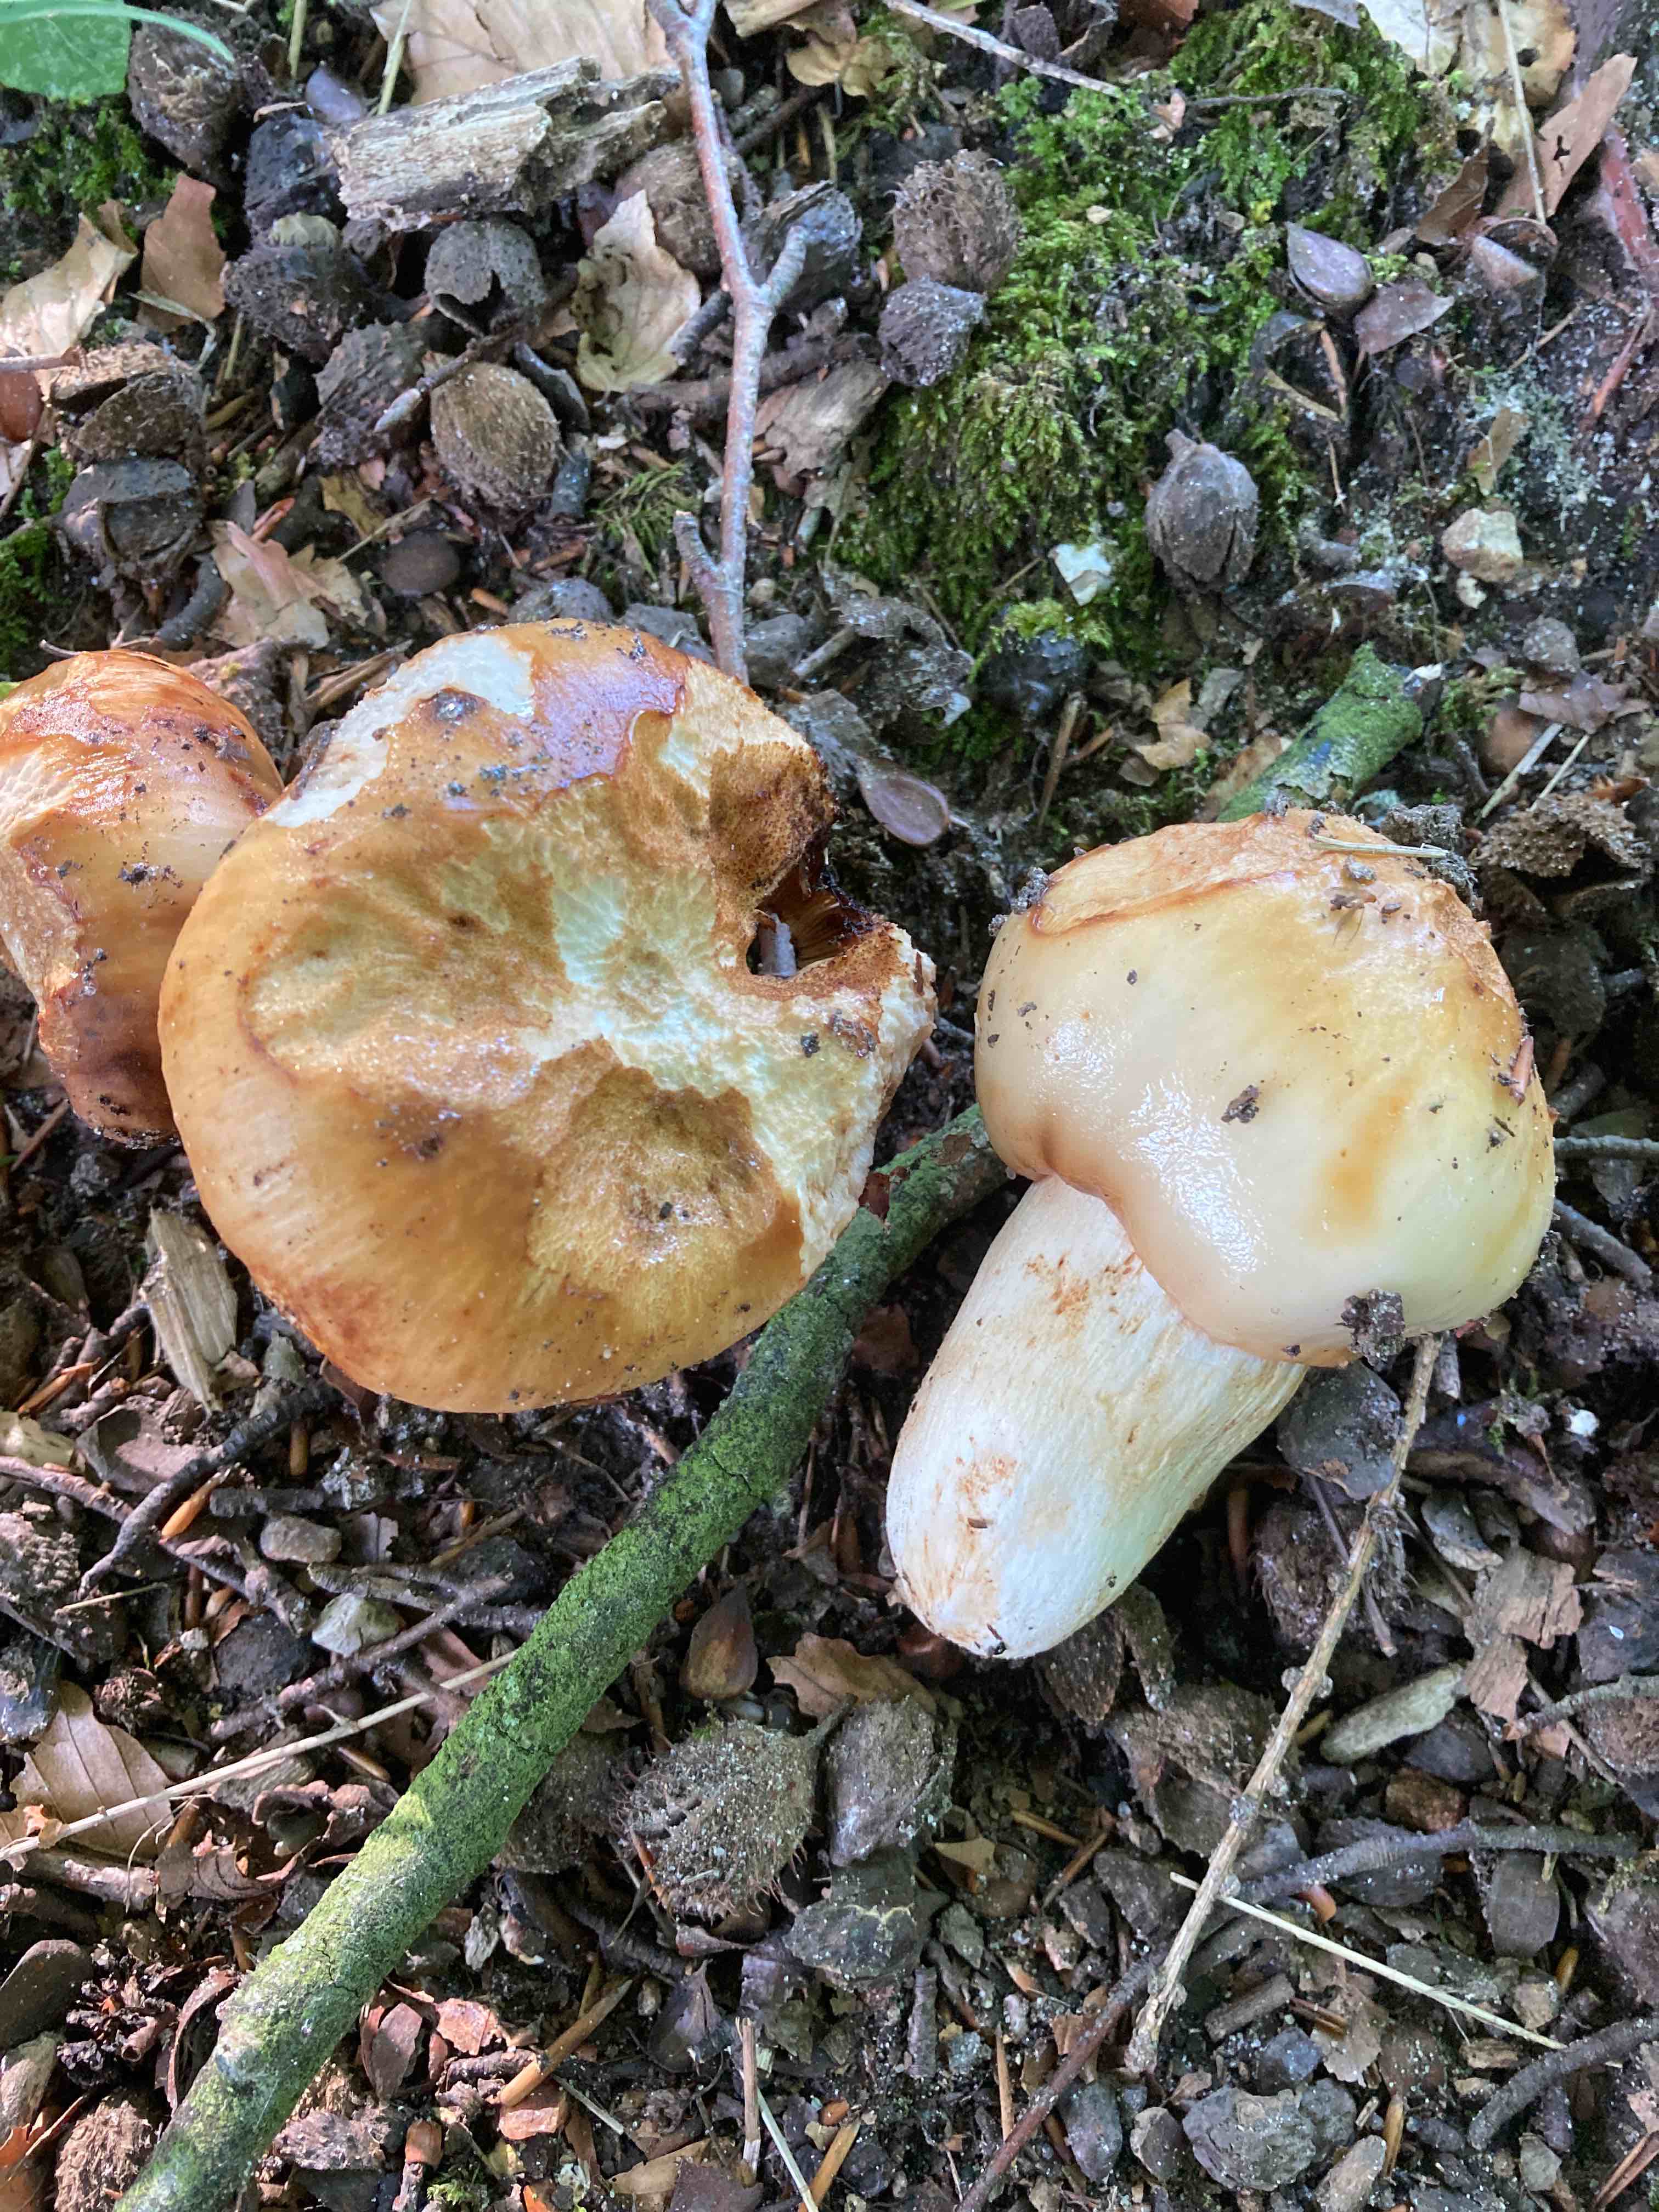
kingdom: Fungi
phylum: Basidiomycota
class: Agaricomycetes
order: Russulales
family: Russulaceae
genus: Russula
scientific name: Russula foetens
